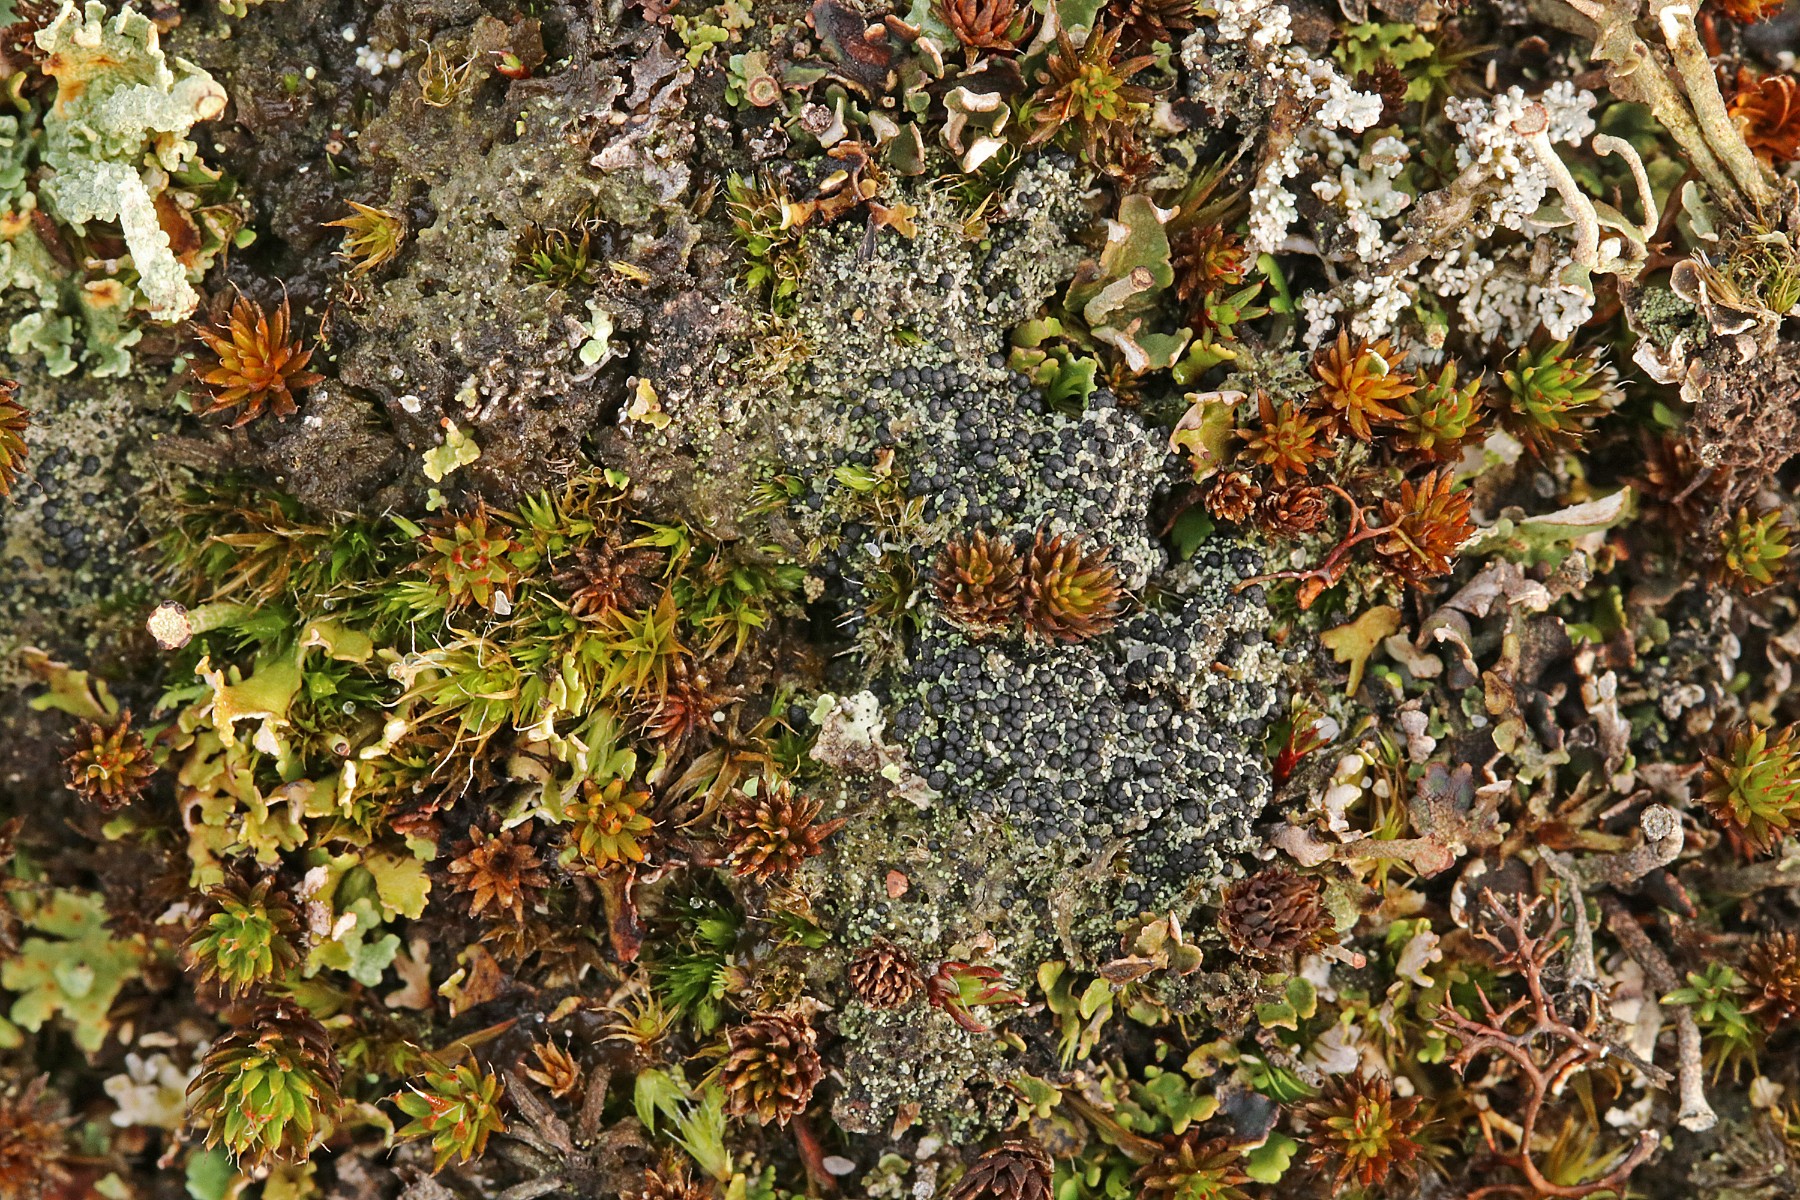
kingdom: Fungi
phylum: Ascomycota
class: Lecanoromycetes
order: Lecanorales
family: Byssolomataceae
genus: Micarea
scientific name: Micarea lignaria
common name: tørve-knaplav
